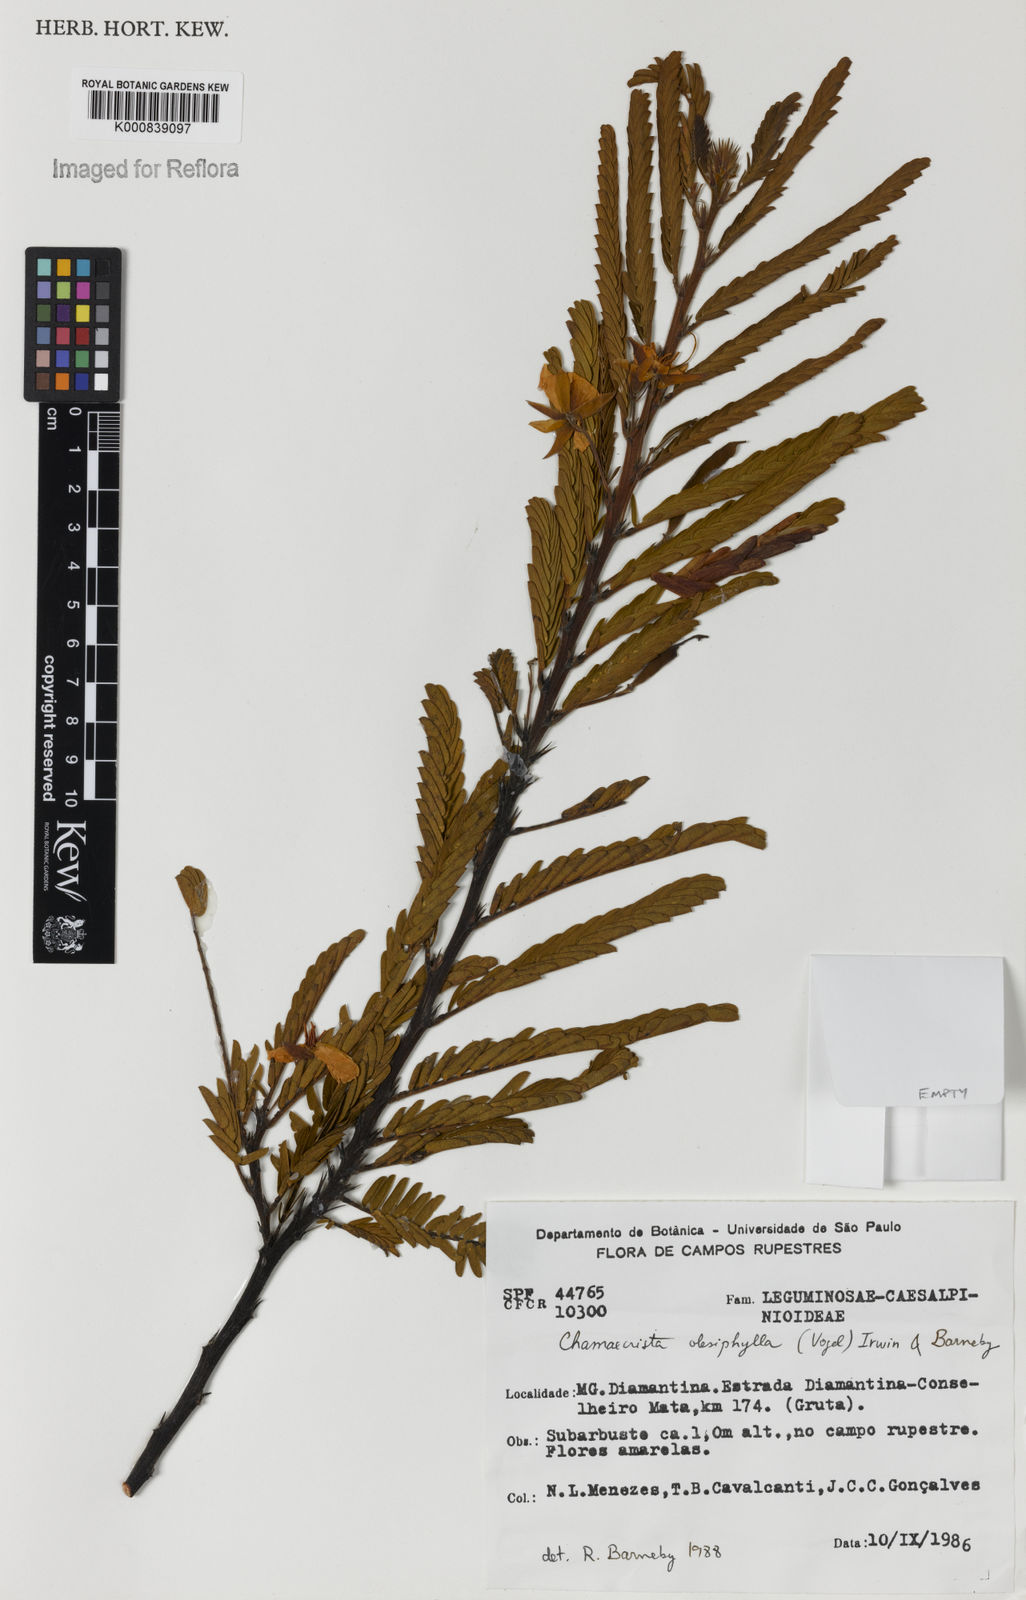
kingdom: Plantae
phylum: Tracheophyta
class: Magnoliopsida
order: Fabales
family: Fabaceae
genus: Chamaecrista
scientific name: Chamaecrista
